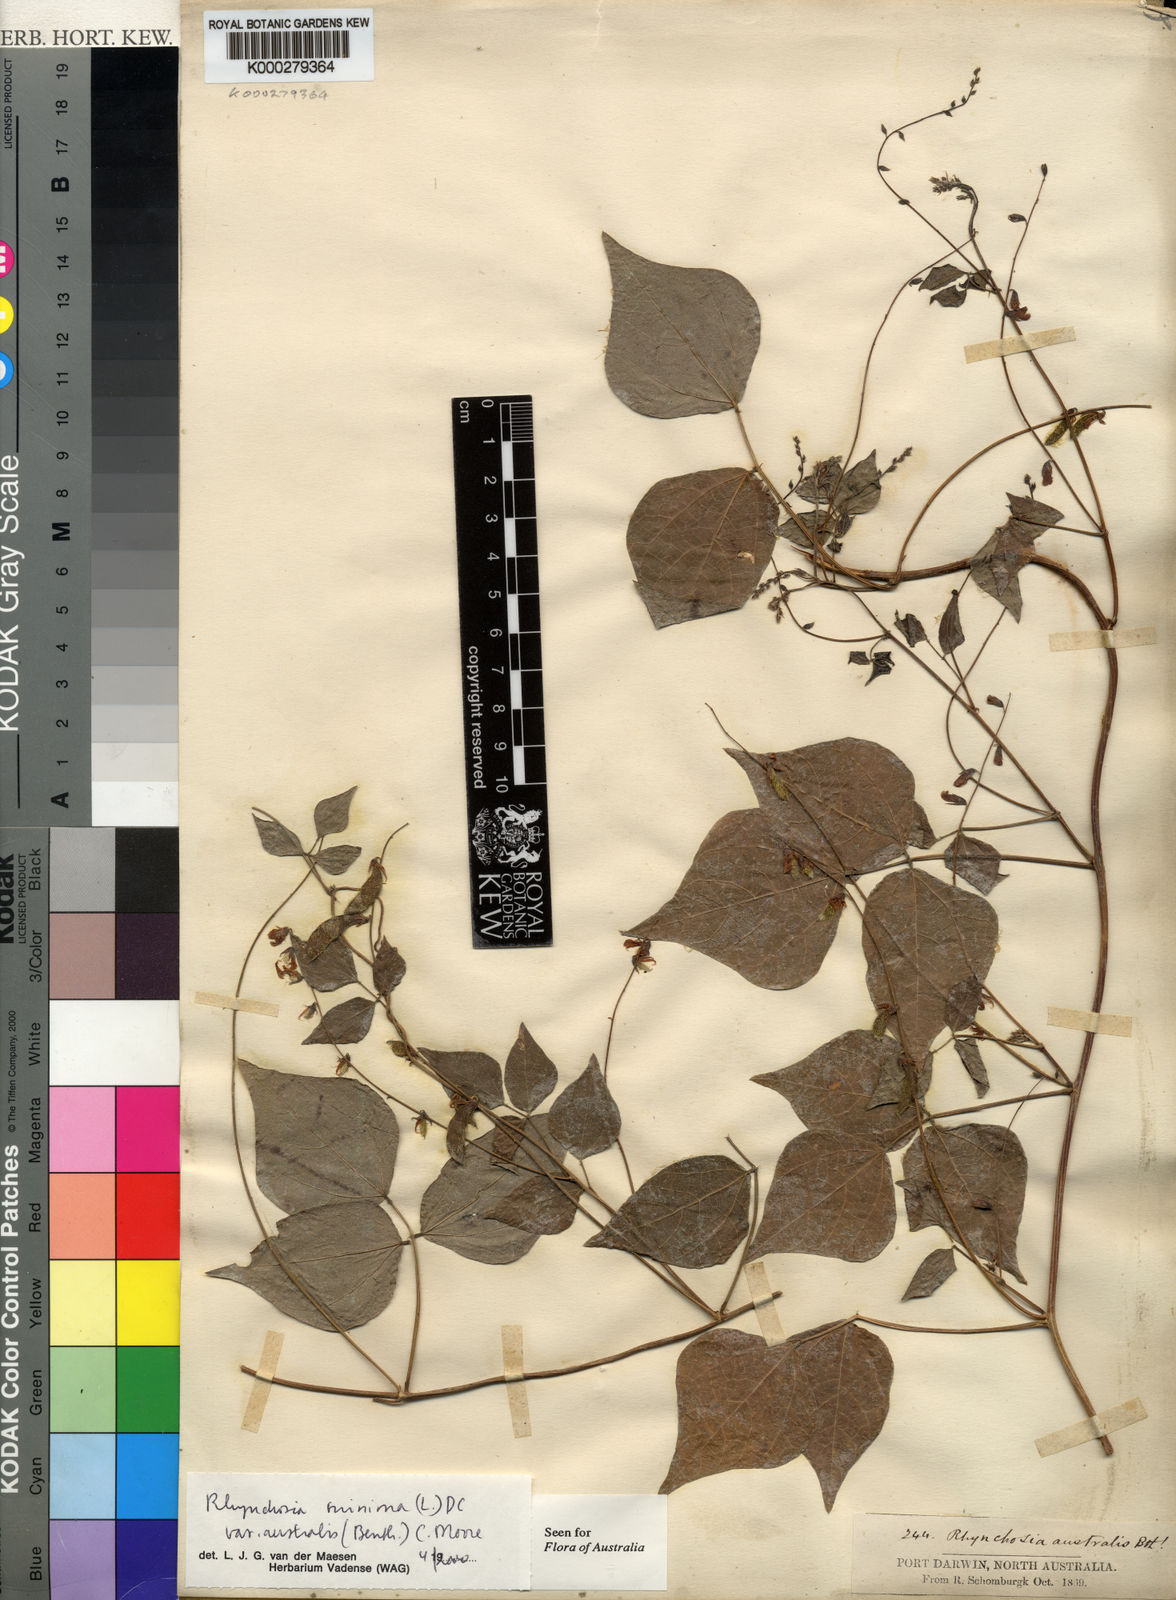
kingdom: Plantae
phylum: Tracheophyta
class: Magnoliopsida
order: Fabales
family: Fabaceae
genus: Rhynchosia
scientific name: Rhynchosia australis
